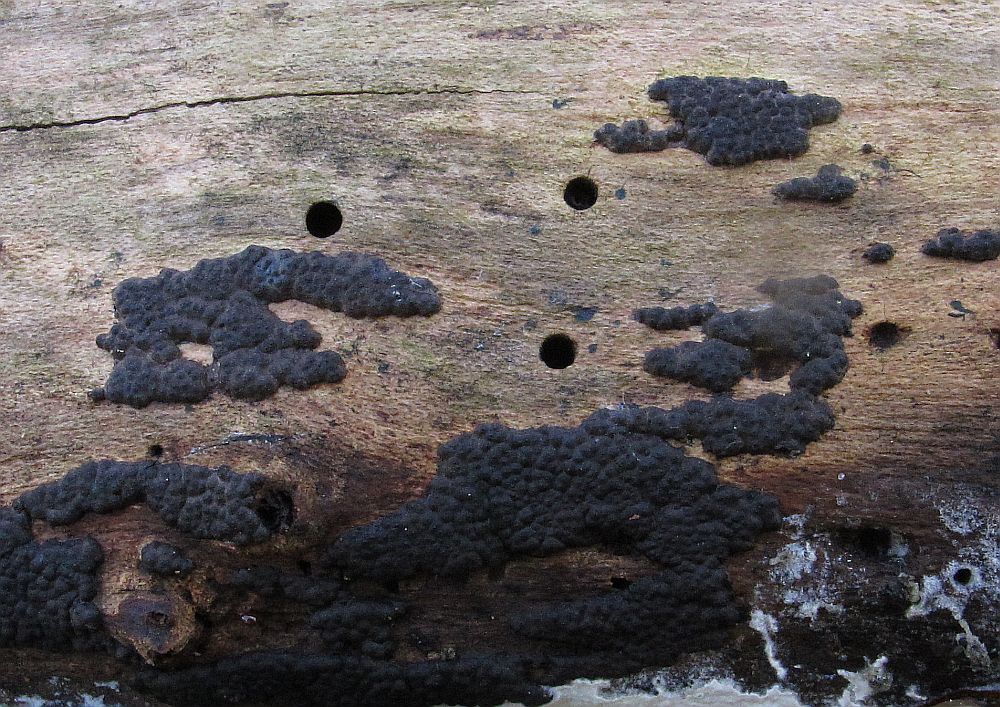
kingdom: Fungi
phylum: Ascomycota
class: Sordariomycetes
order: Xylariales
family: Xylariaceae
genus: Nemania
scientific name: Nemania serpens
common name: almindelig kuldyne
